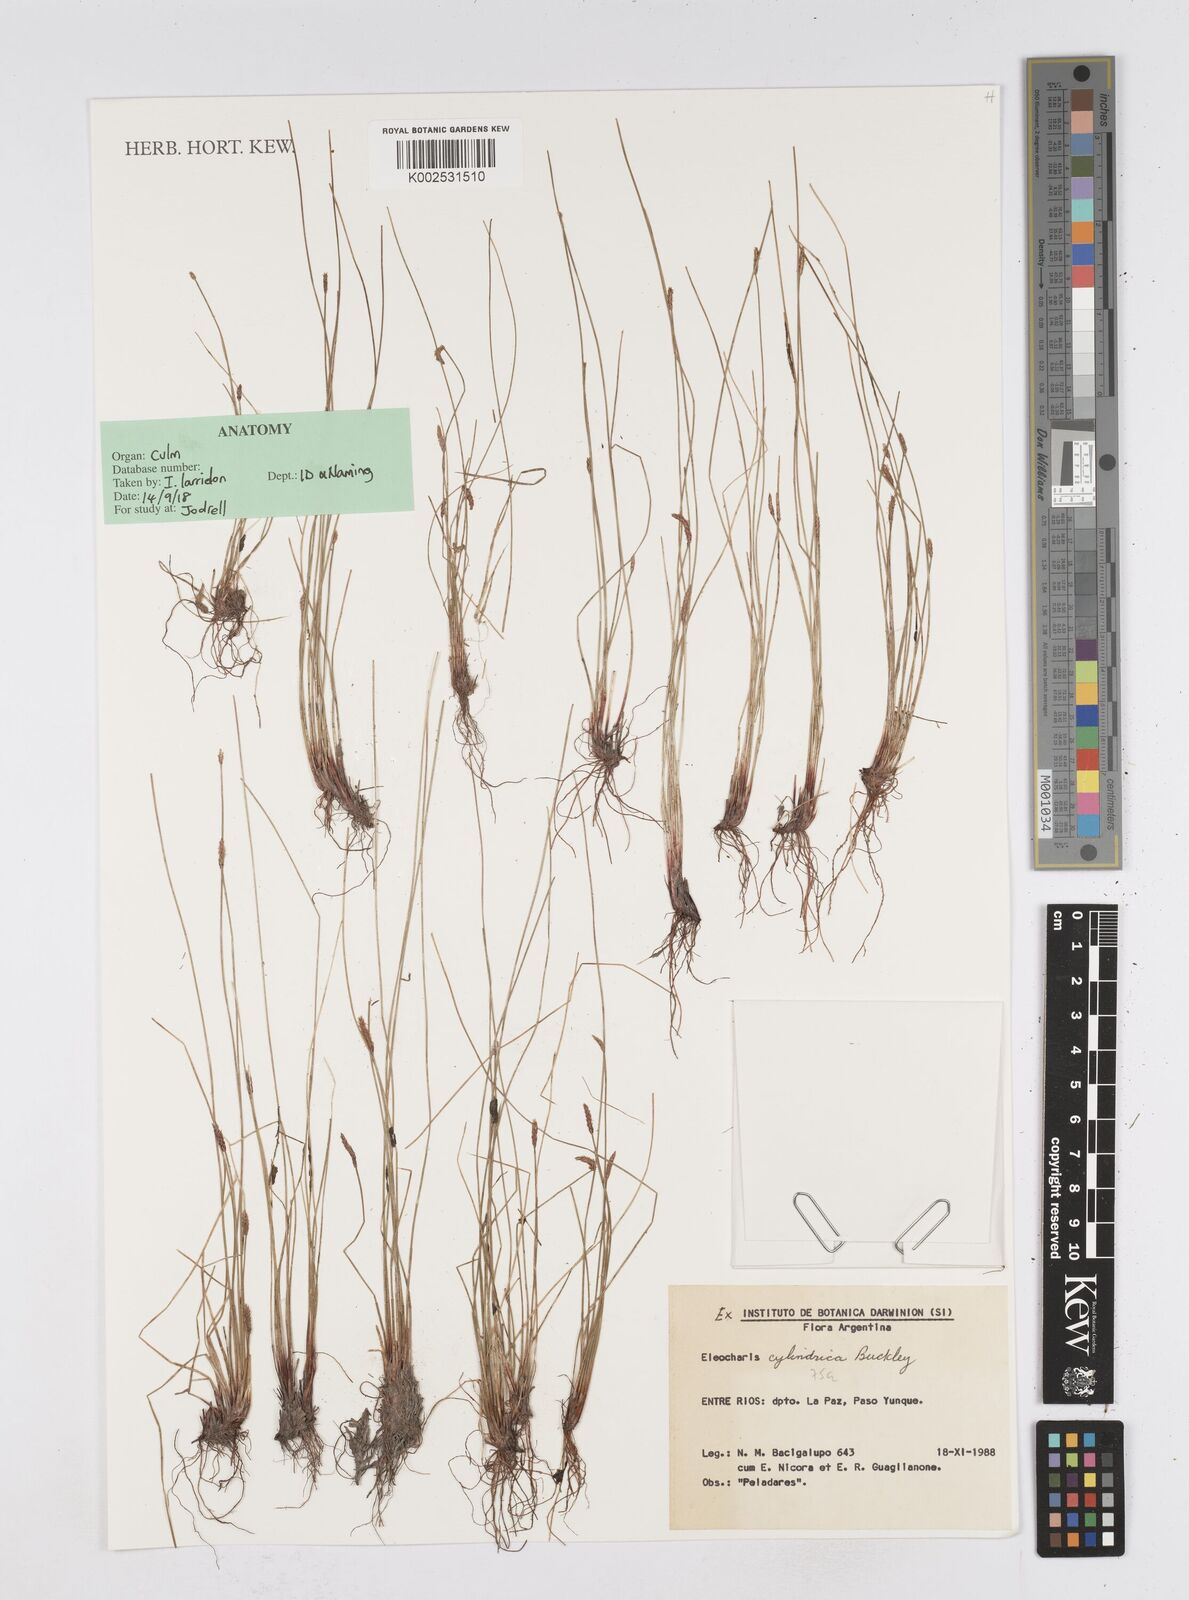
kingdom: Plantae
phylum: Tracheophyta
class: Liliopsida
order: Poales
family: Cyperaceae
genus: Eleocharis
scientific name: Eleocharis cylindrica
